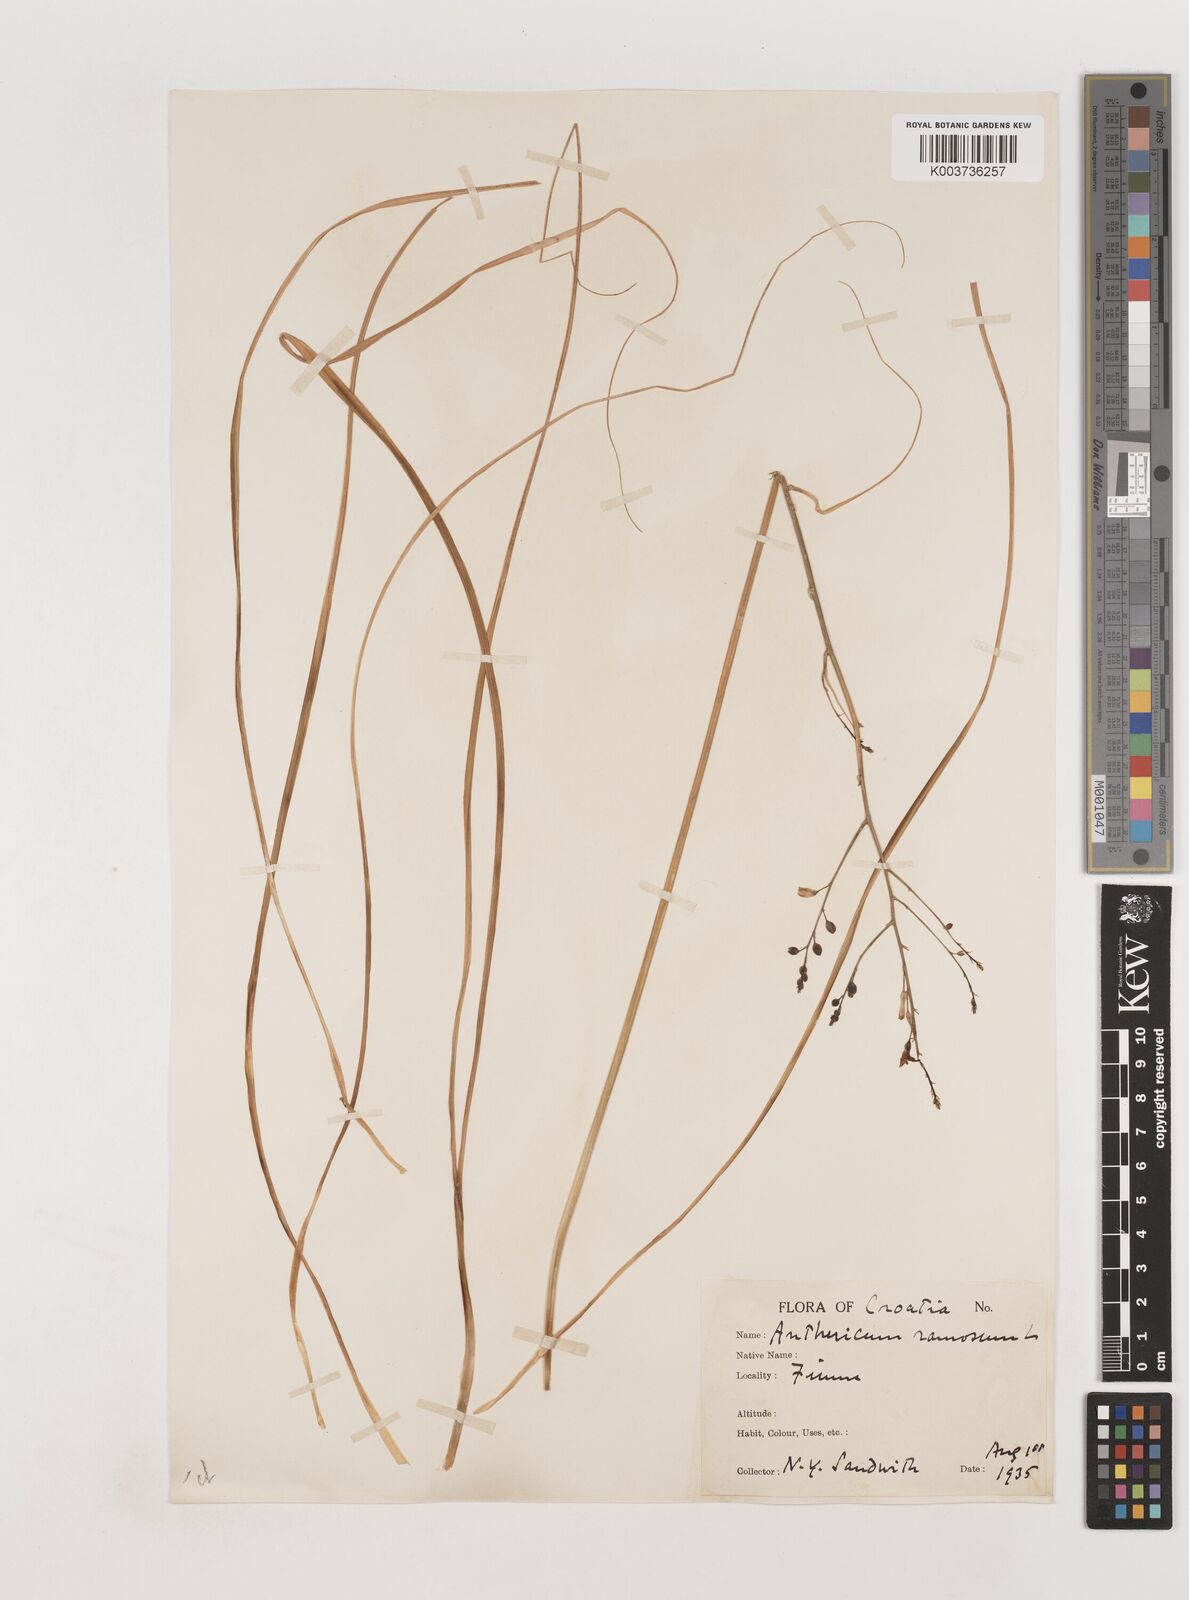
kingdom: Plantae
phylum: Tracheophyta
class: Liliopsida
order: Asparagales
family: Asparagaceae
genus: Anthericum
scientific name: Anthericum ramosum
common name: Branched st. bernard's-lily
